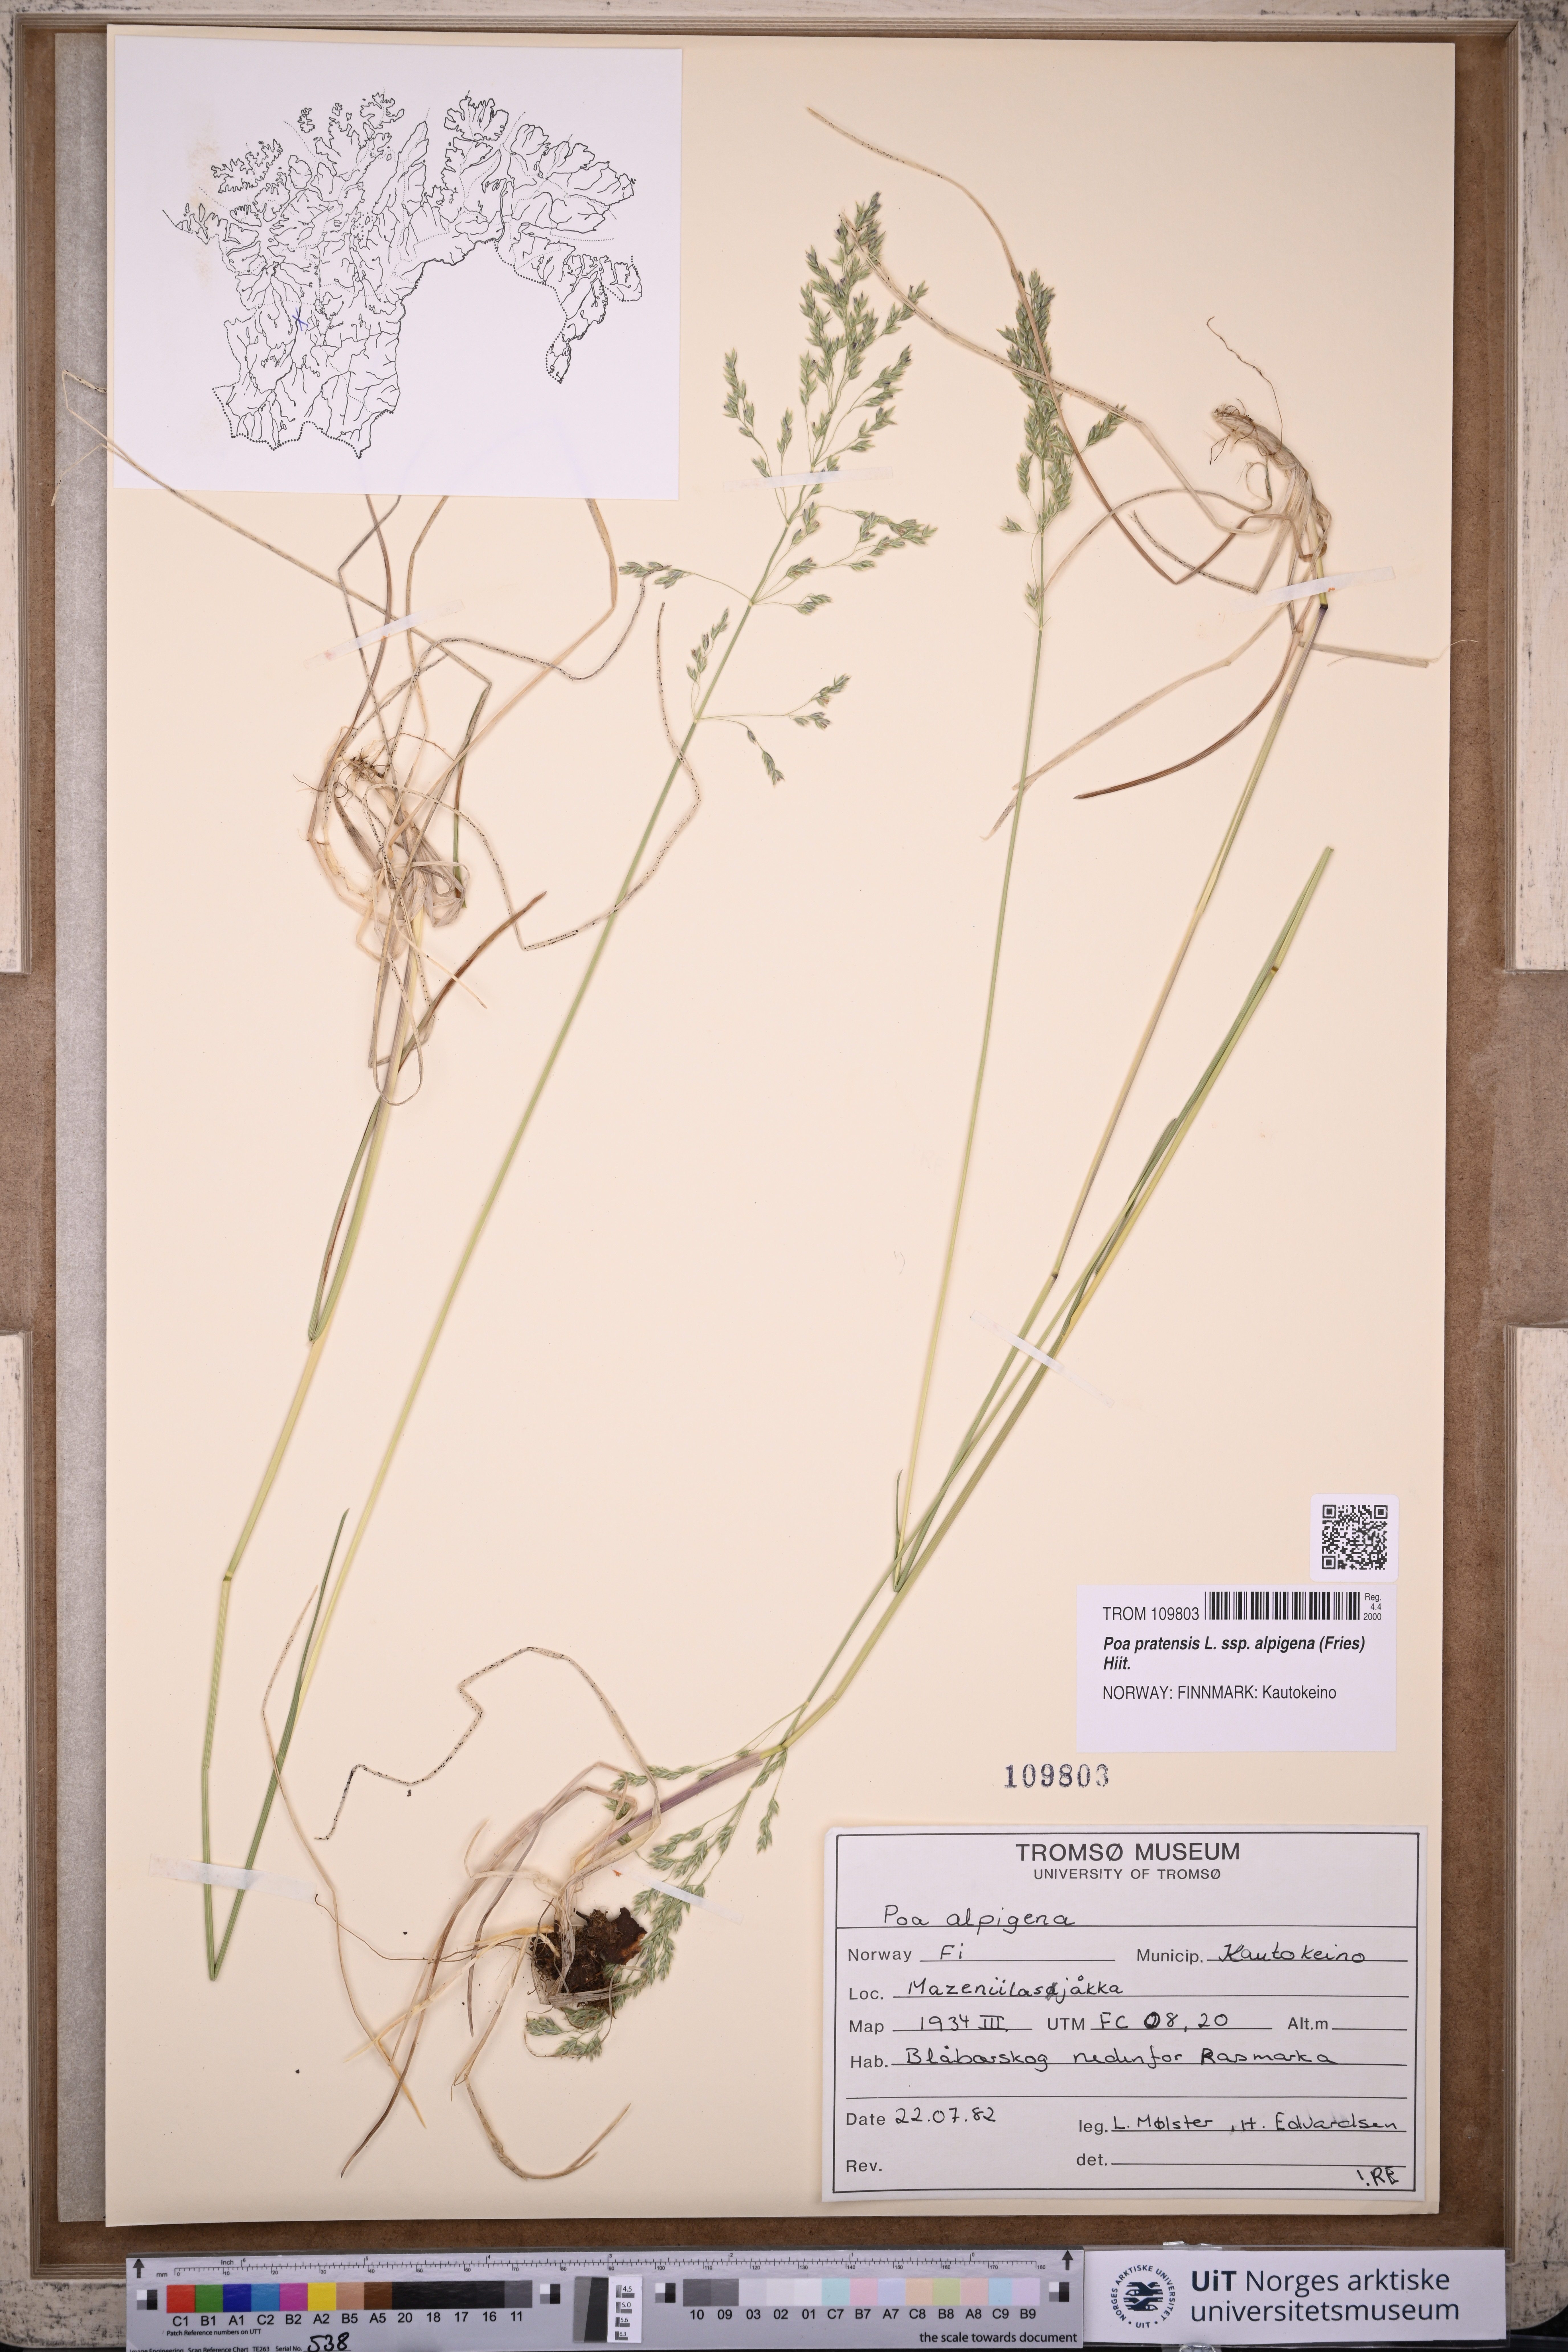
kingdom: Plantae
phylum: Tracheophyta
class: Liliopsida
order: Poales
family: Poaceae
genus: Poa
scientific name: Poa alpigena
